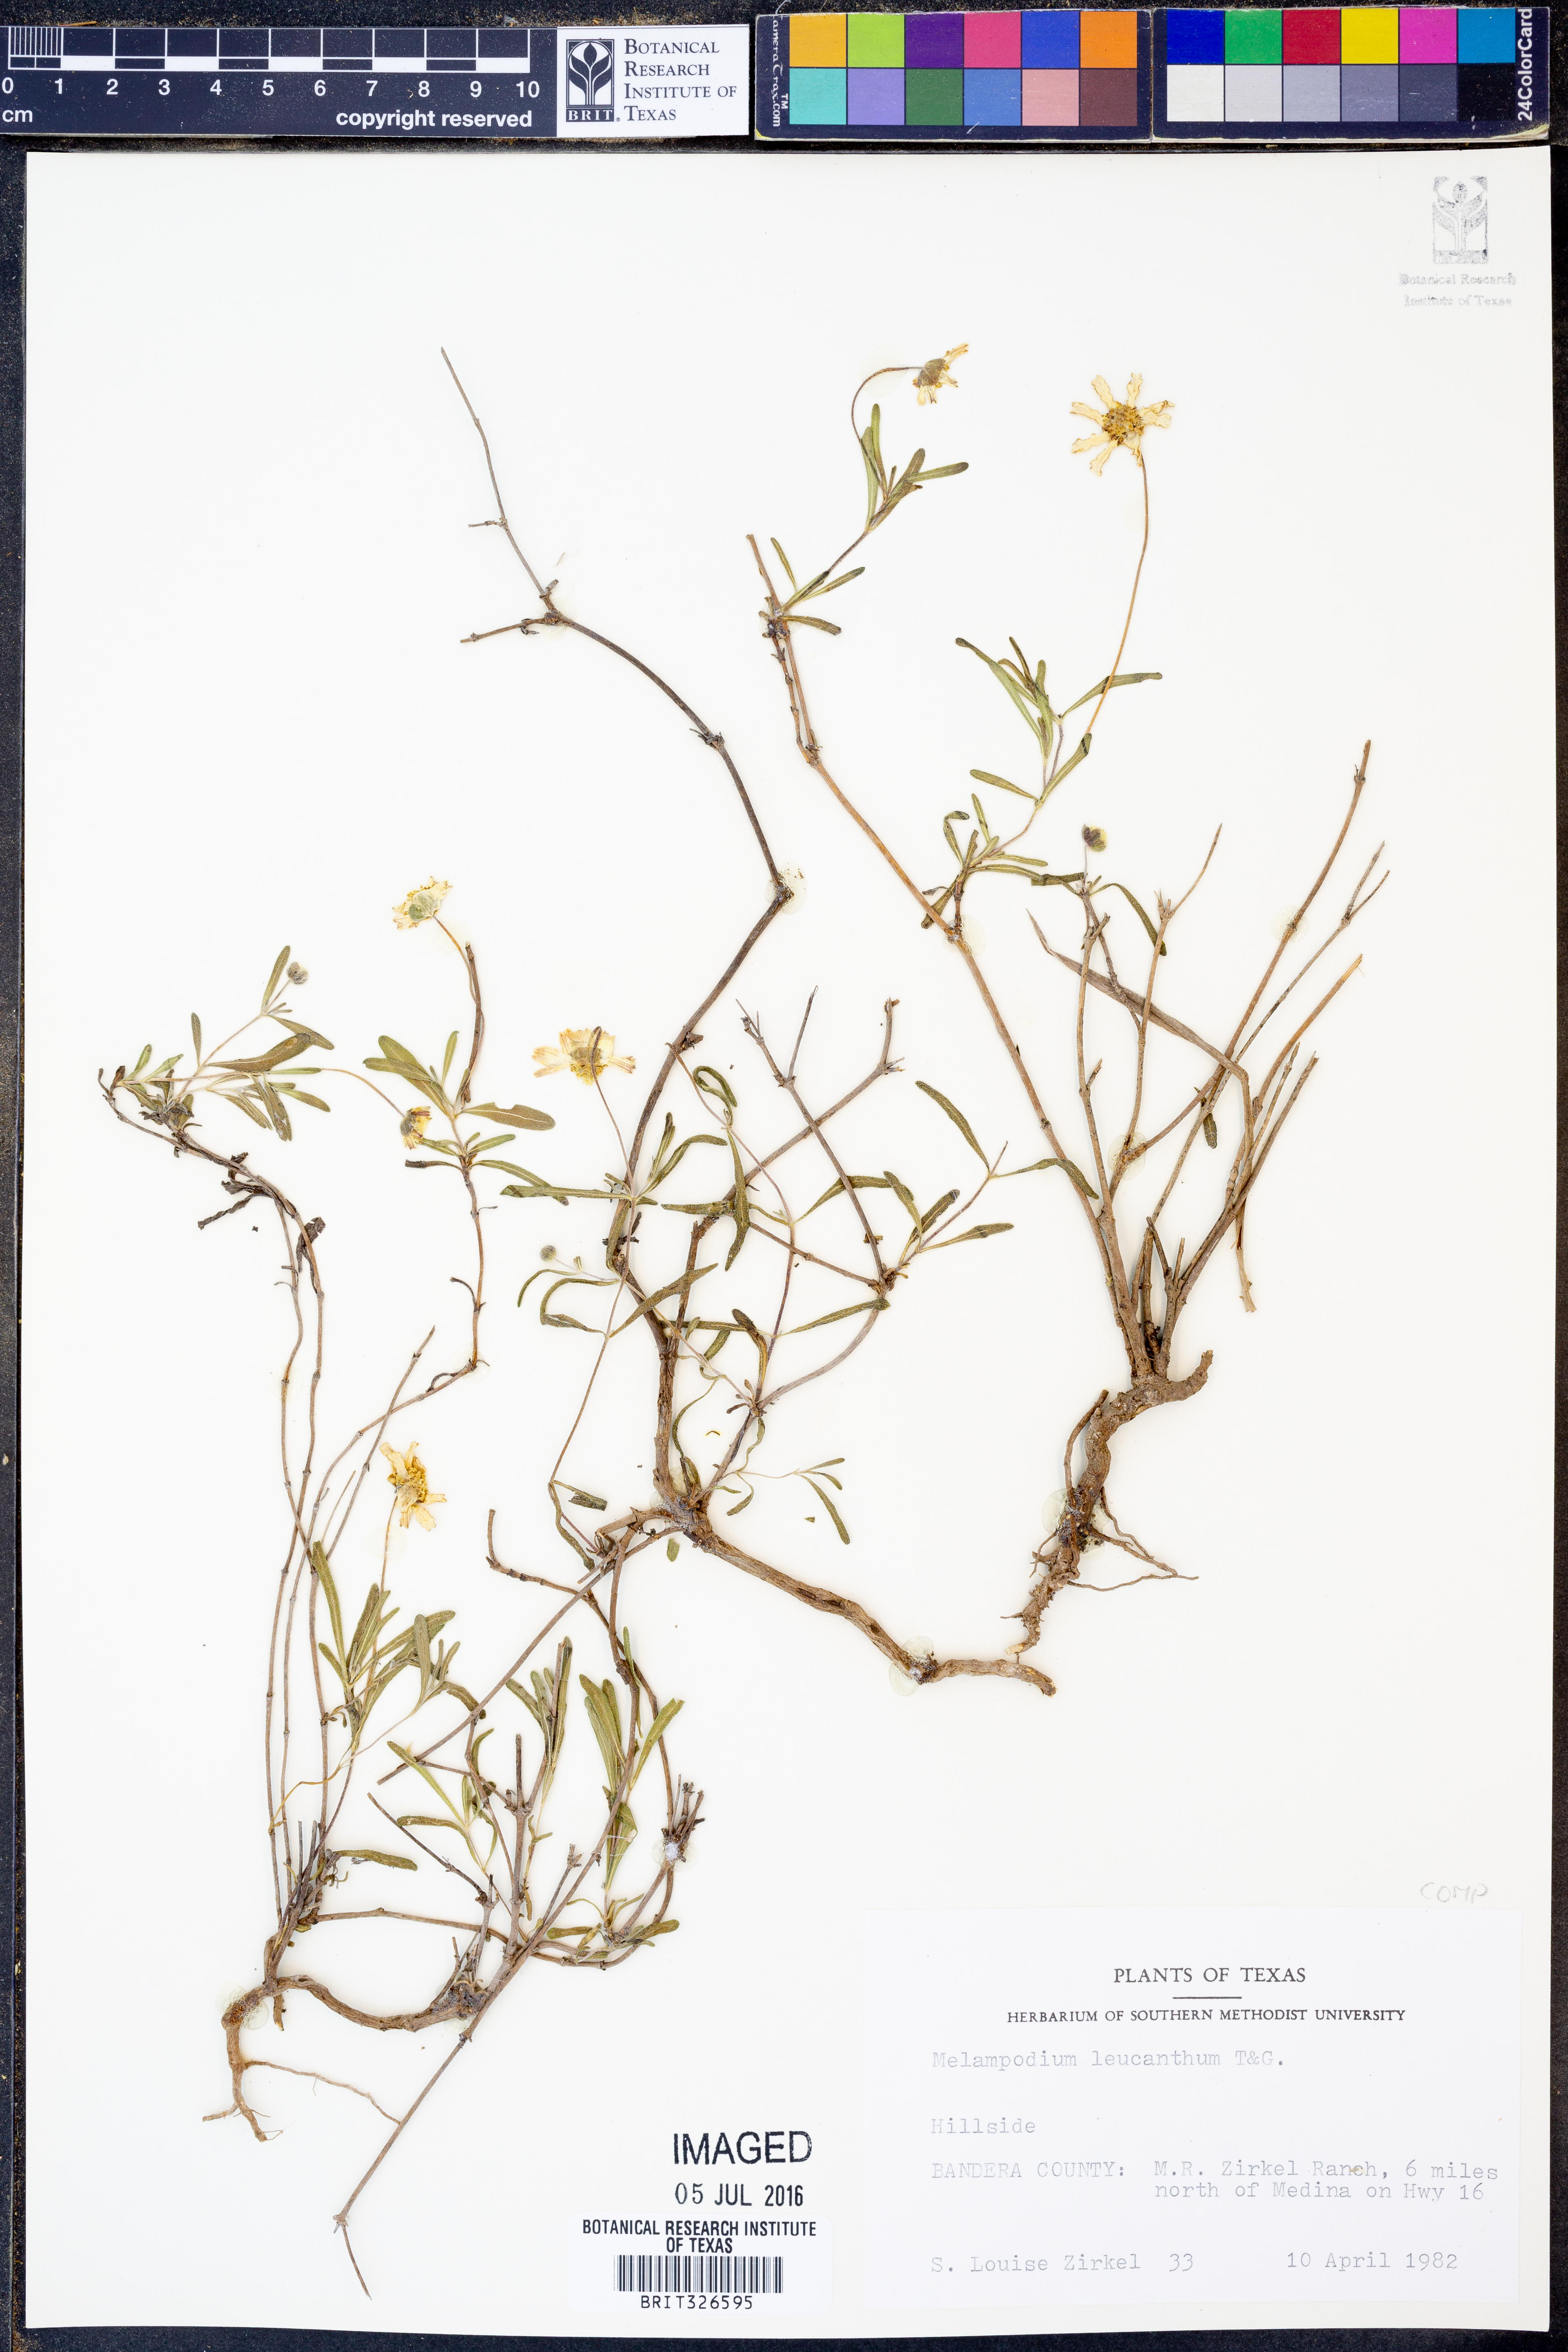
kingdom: Plantae
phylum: Tracheophyta
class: Magnoliopsida
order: Asterales
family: Asteraceae
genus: Melampodium
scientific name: Melampodium leucanthum
